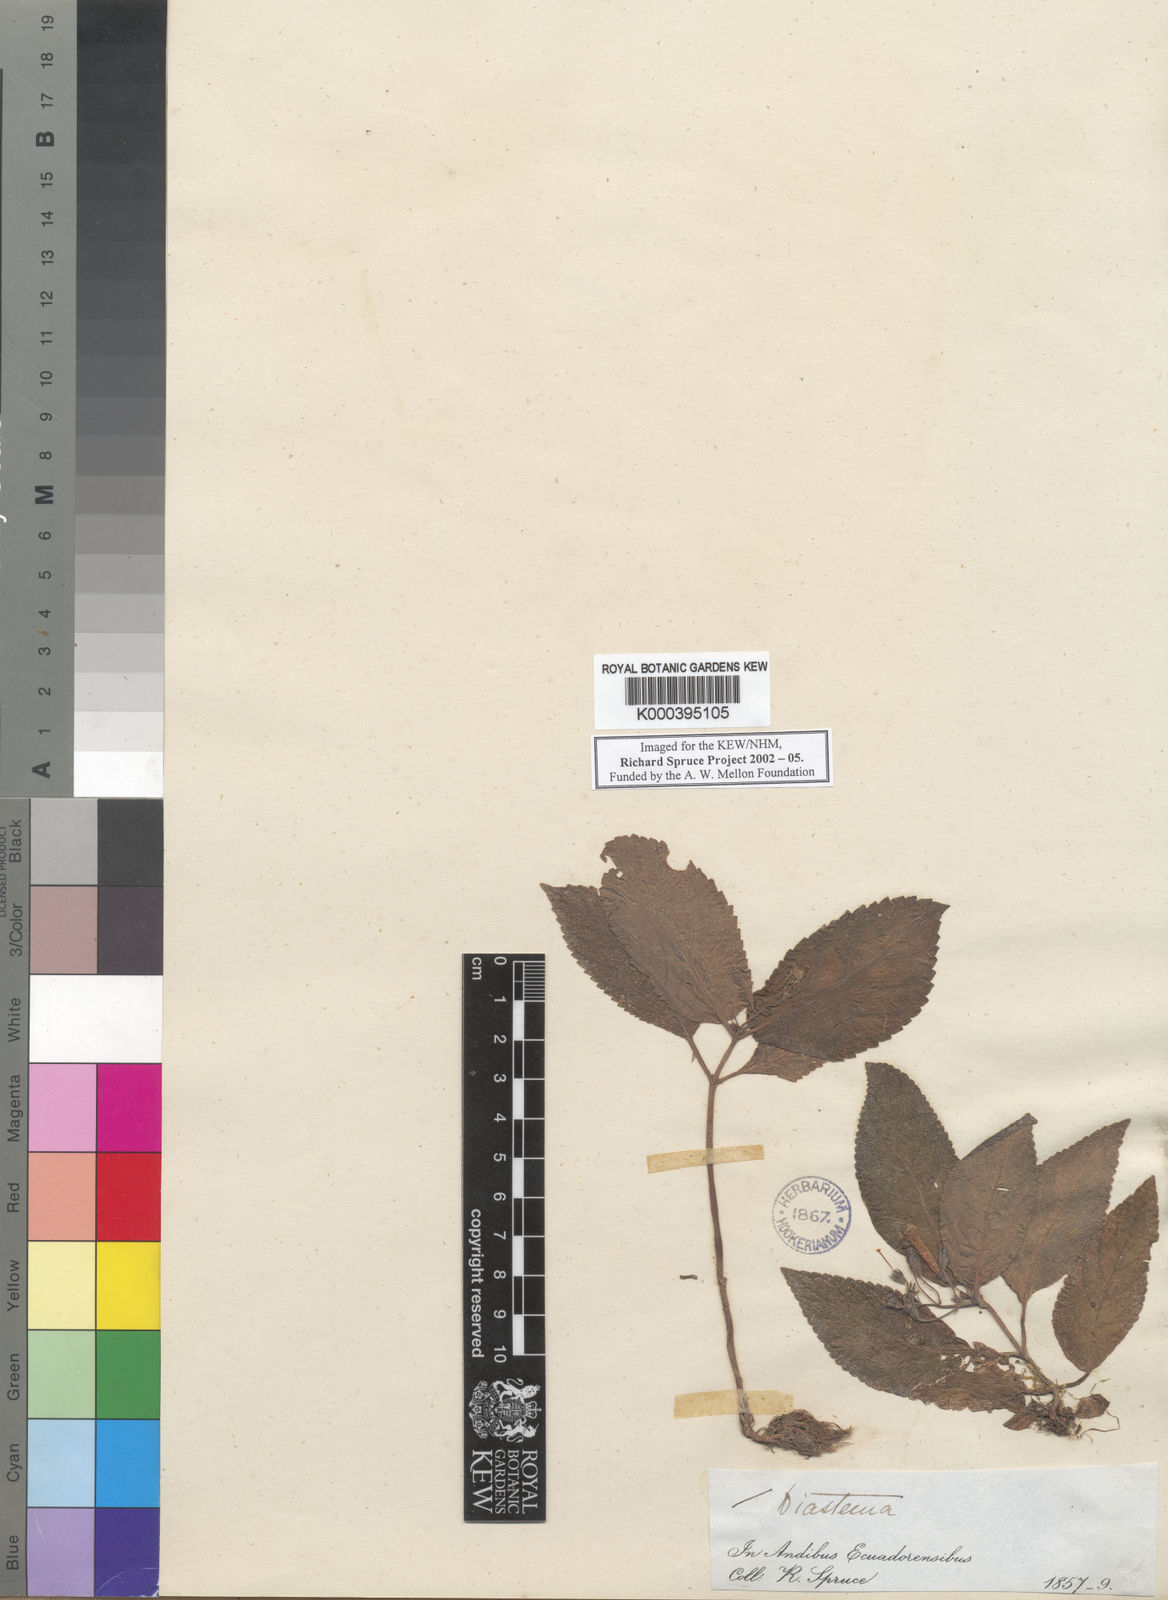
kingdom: Plantae
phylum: Tracheophyta
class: Magnoliopsida
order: Lamiales
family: Gesneriaceae
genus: Diastema
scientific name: Diastema
